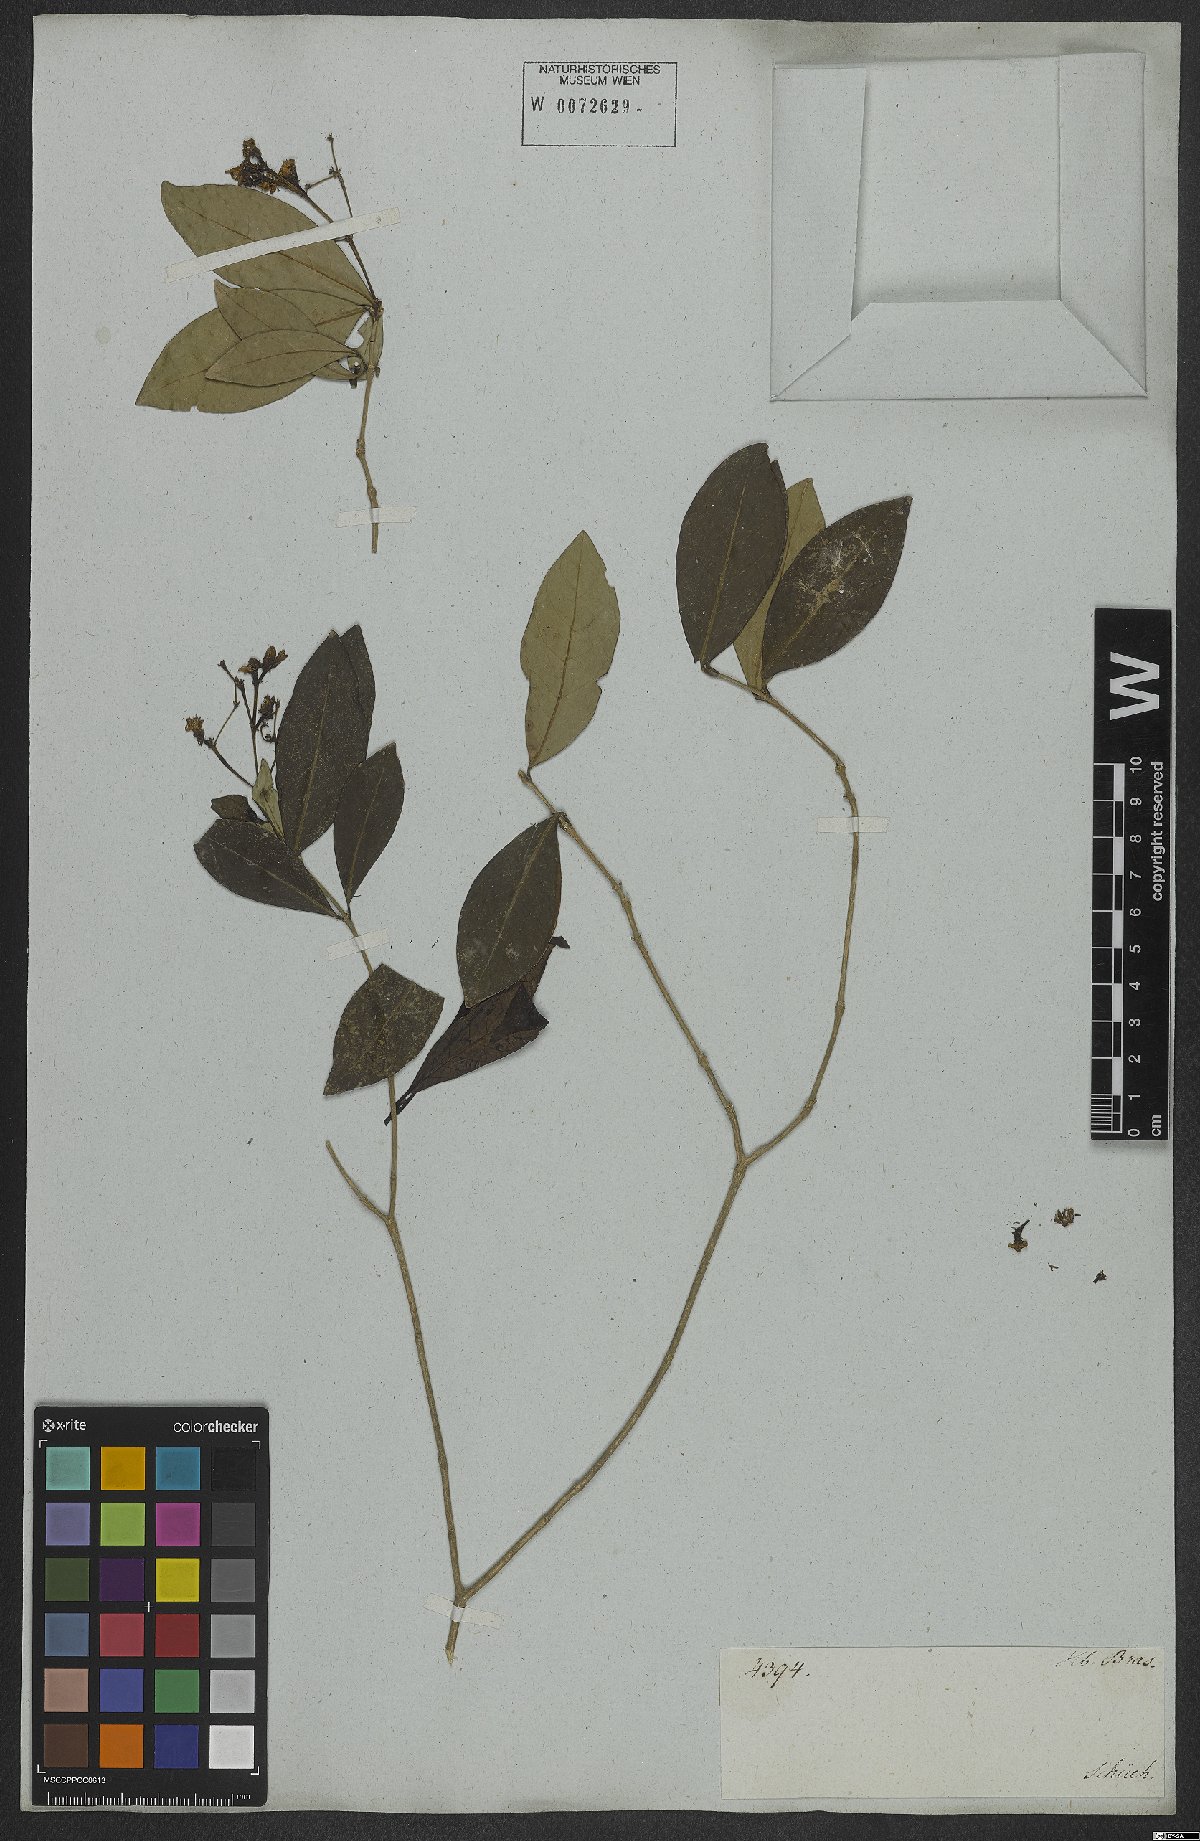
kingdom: Plantae
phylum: Tracheophyta
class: Magnoliopsida
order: Gentianales
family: Rubiaceae
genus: Rudgea
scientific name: Rudgea minor
